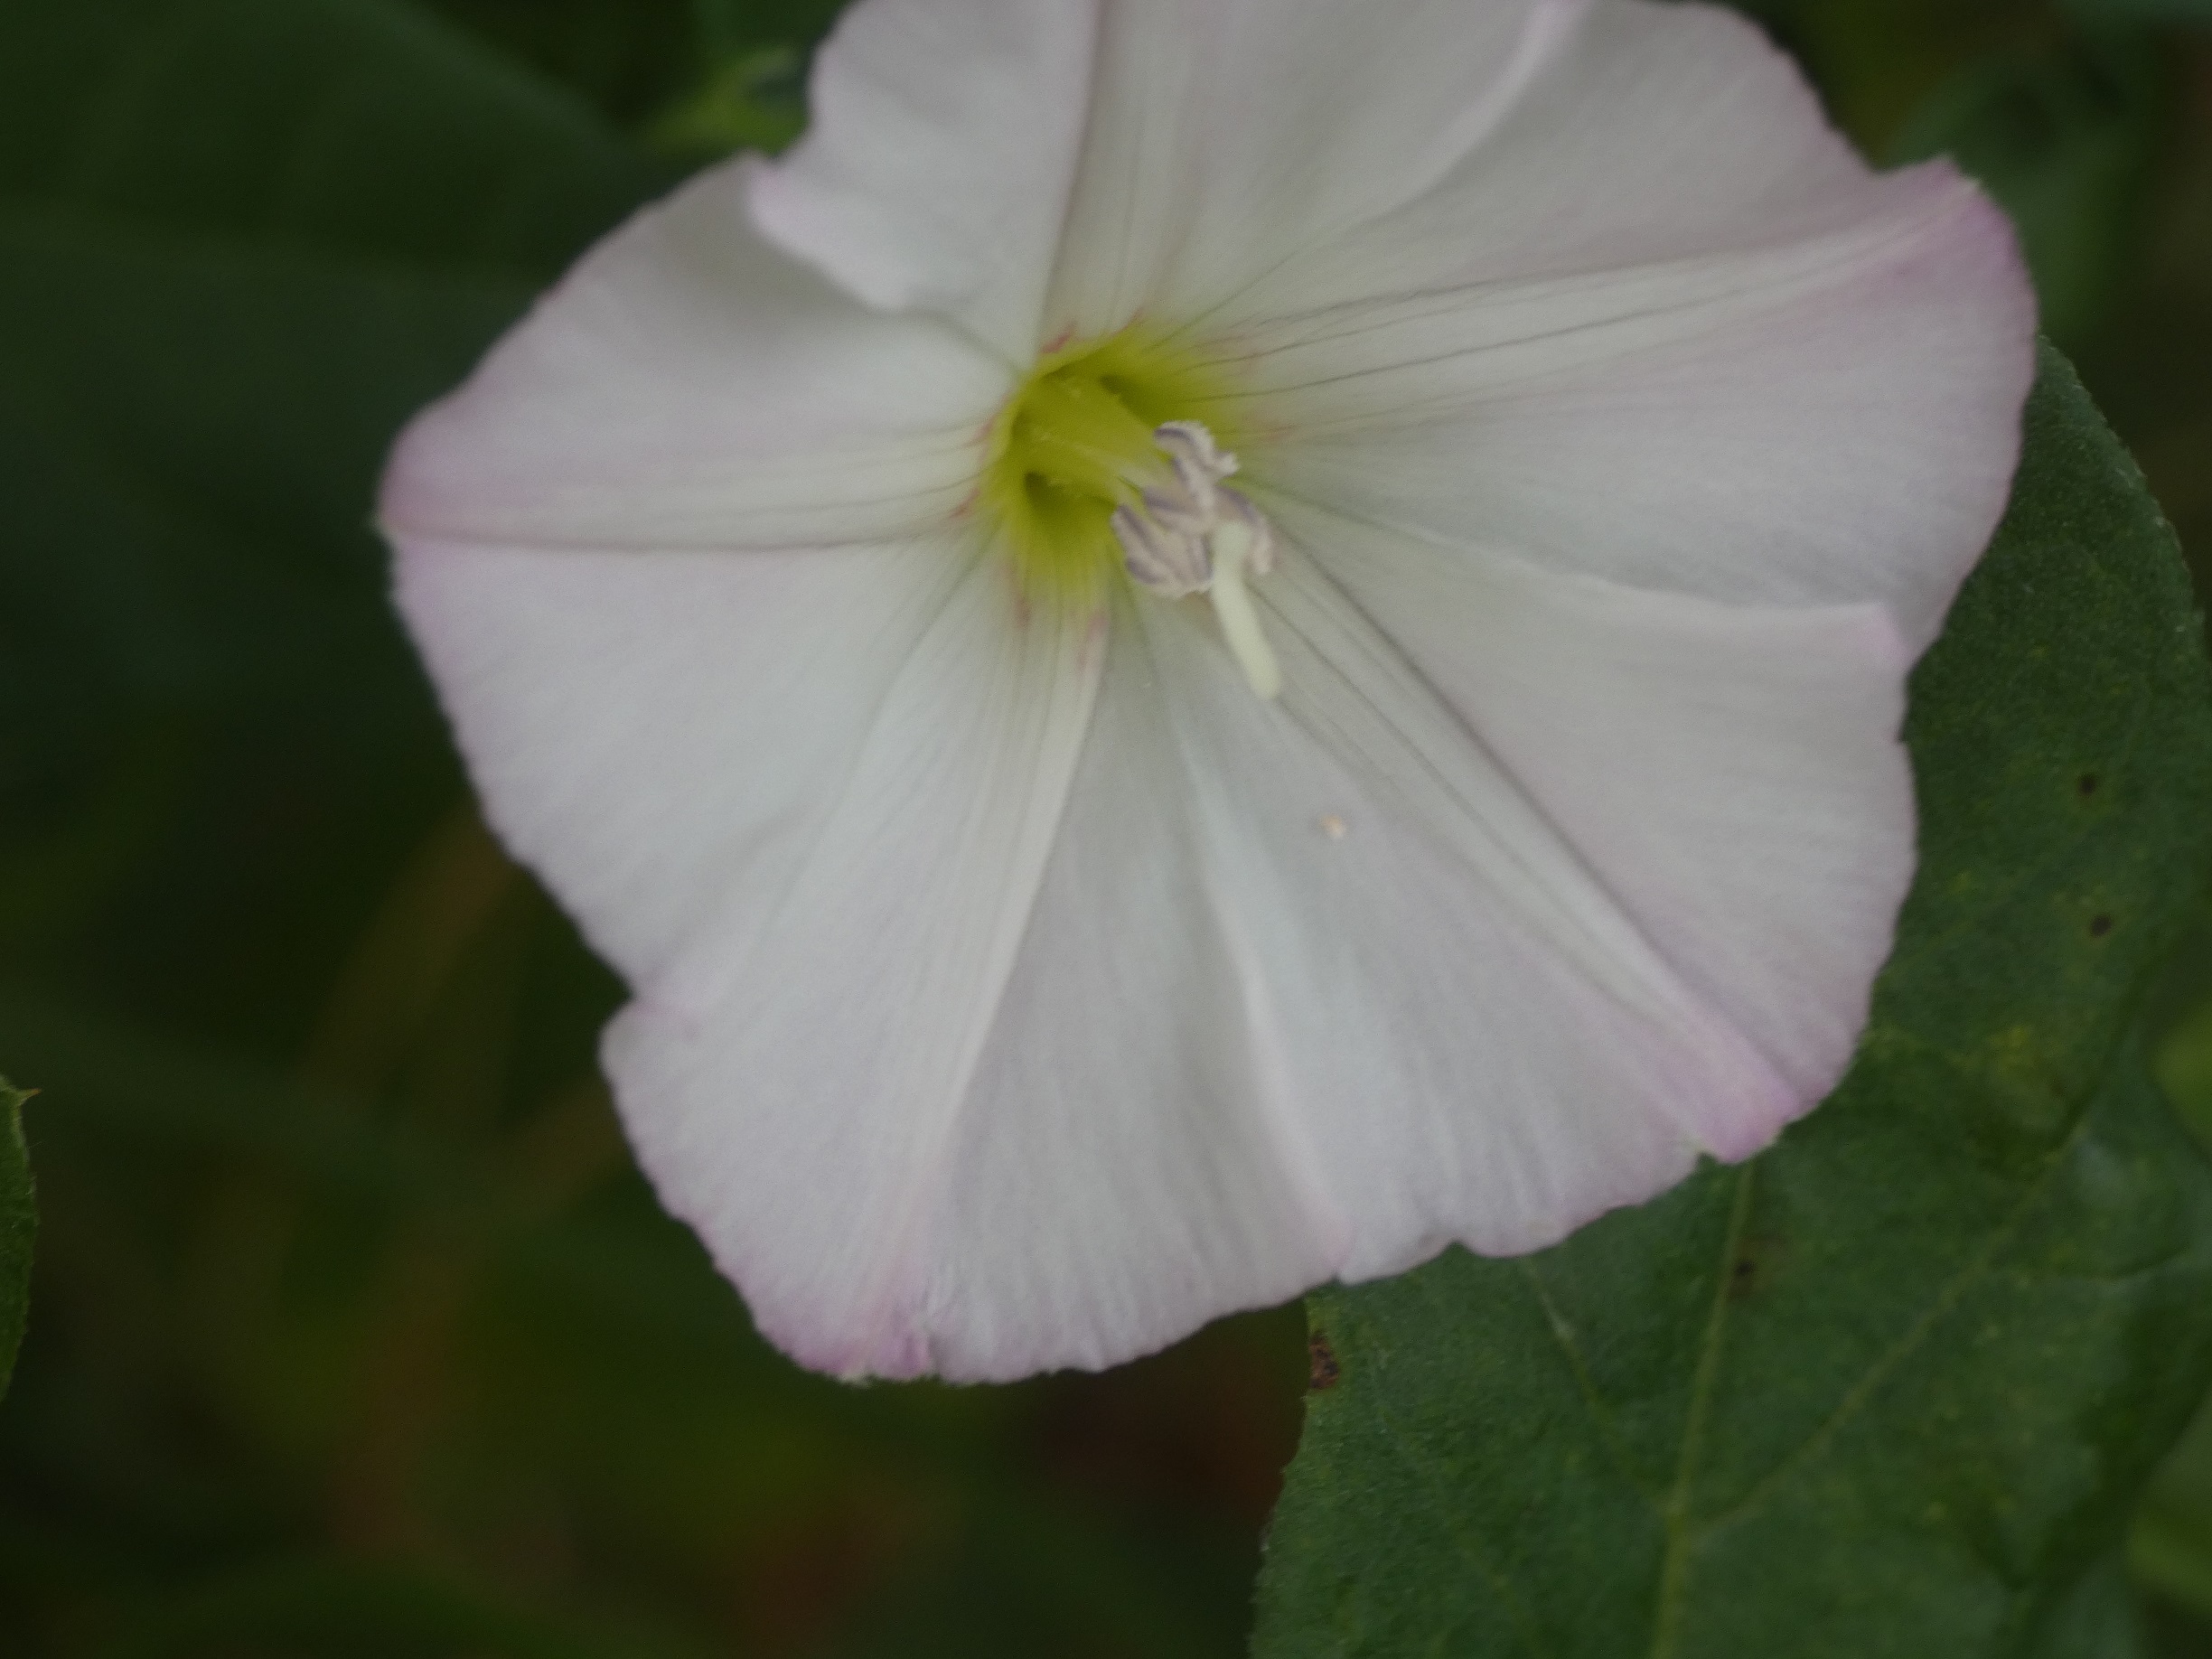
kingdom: Plantae
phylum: Tracheophyta
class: Magnoliopsida
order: Solanales
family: Convolvulaceae
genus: Convolvulus
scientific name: Convolvulus arvensis
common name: Ager-snerle
